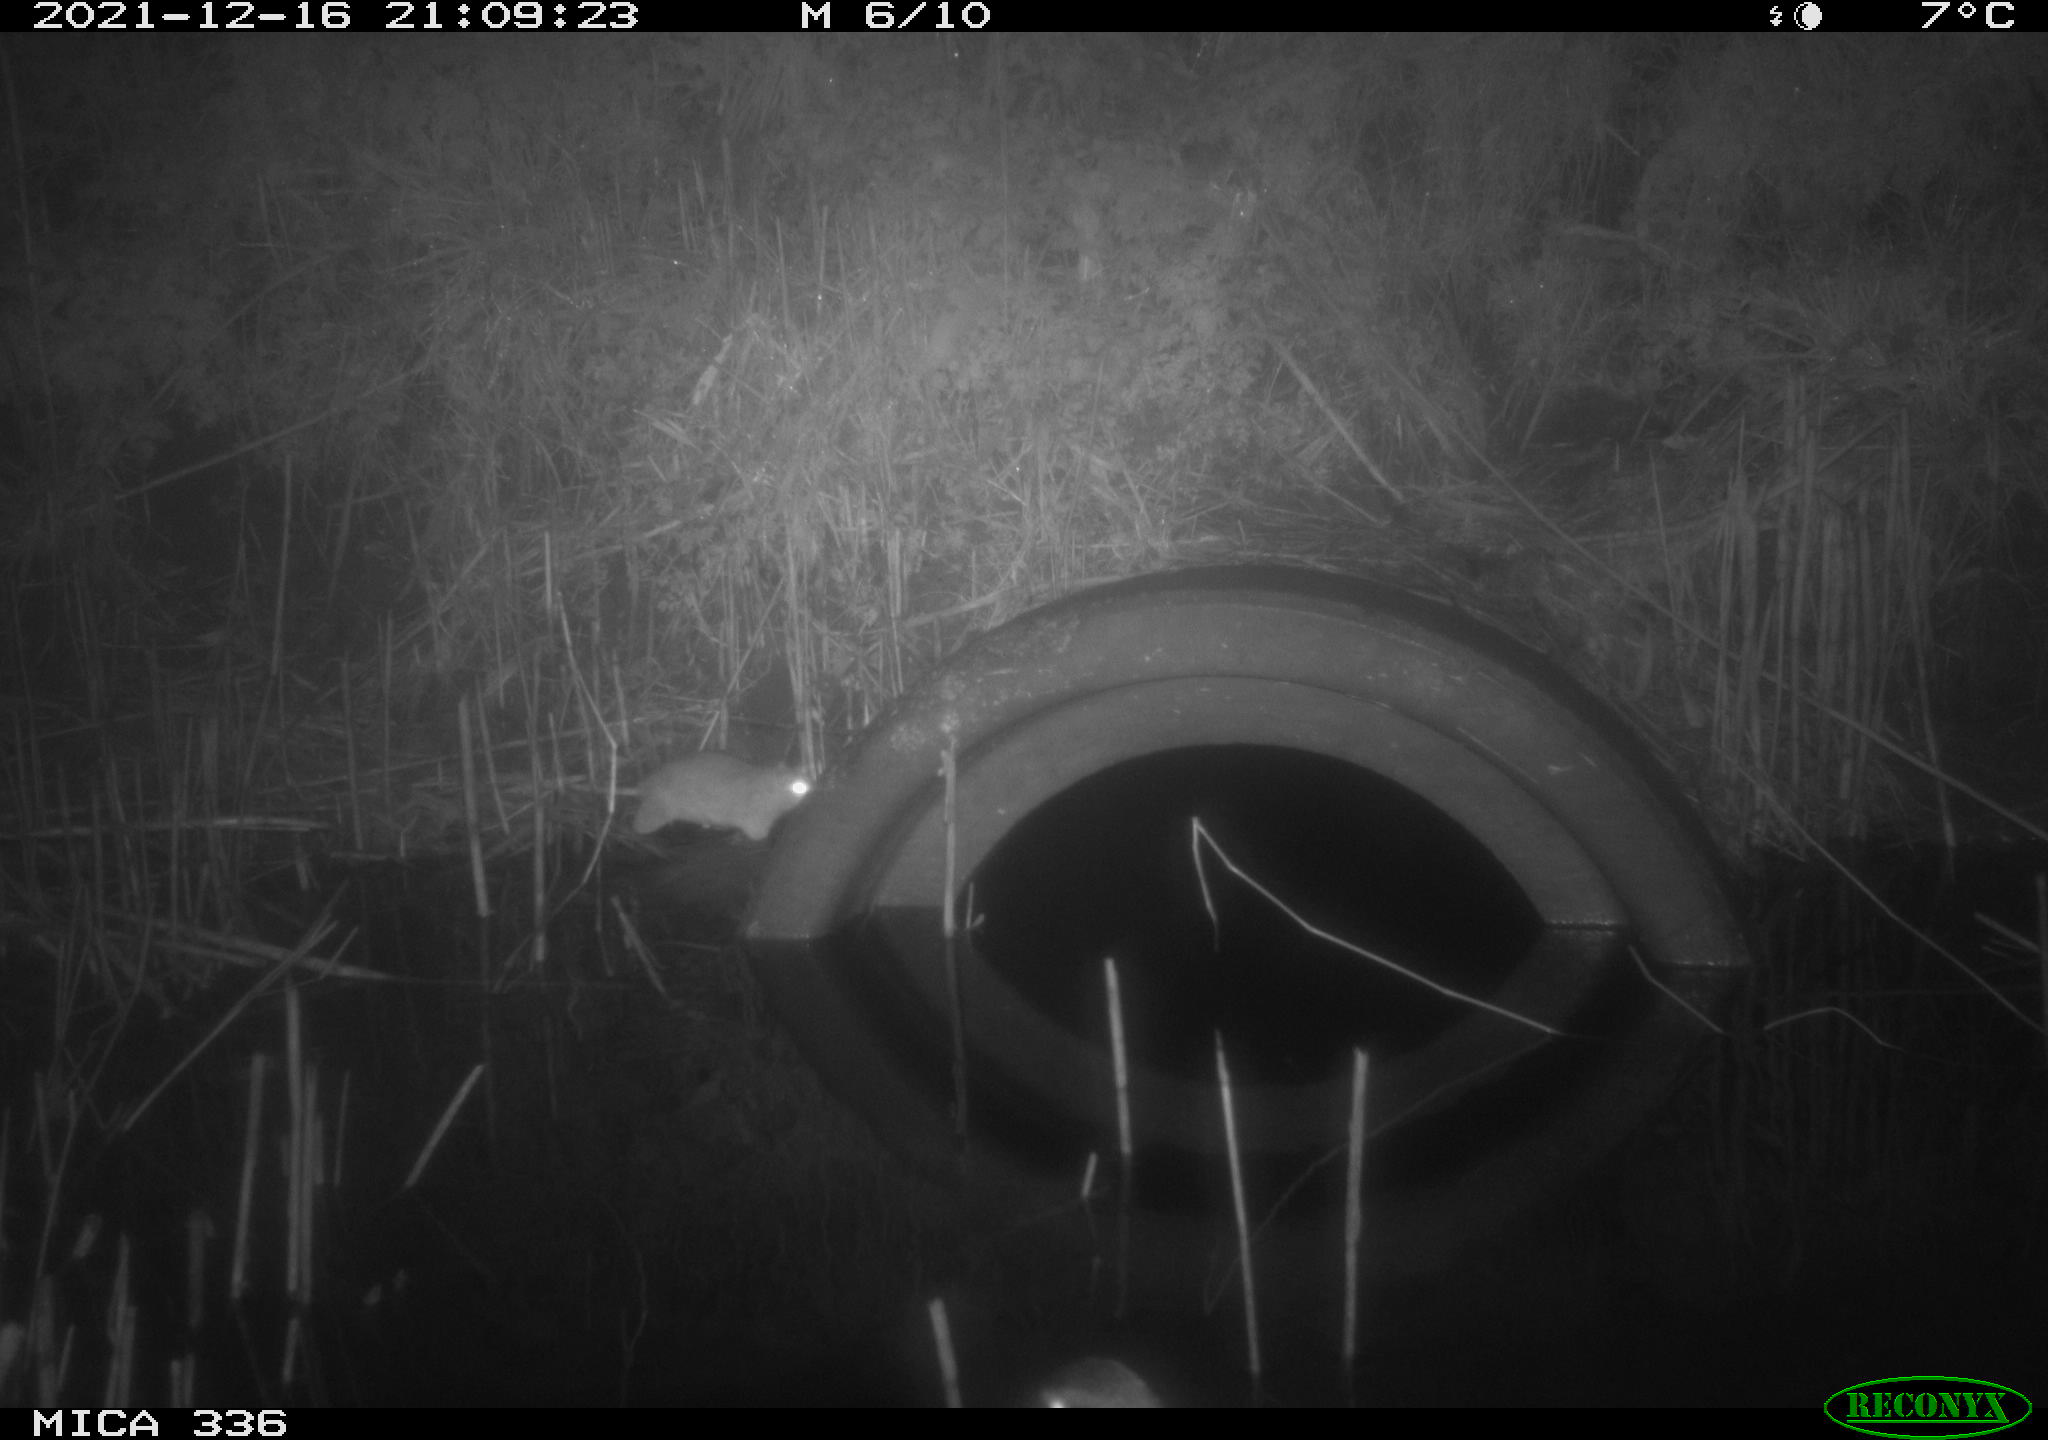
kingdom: Animalia
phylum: Chordata
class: Aves
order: Anseriformes
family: Anatidae
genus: Anas
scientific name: Anas platyrhynchos
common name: Mallard
